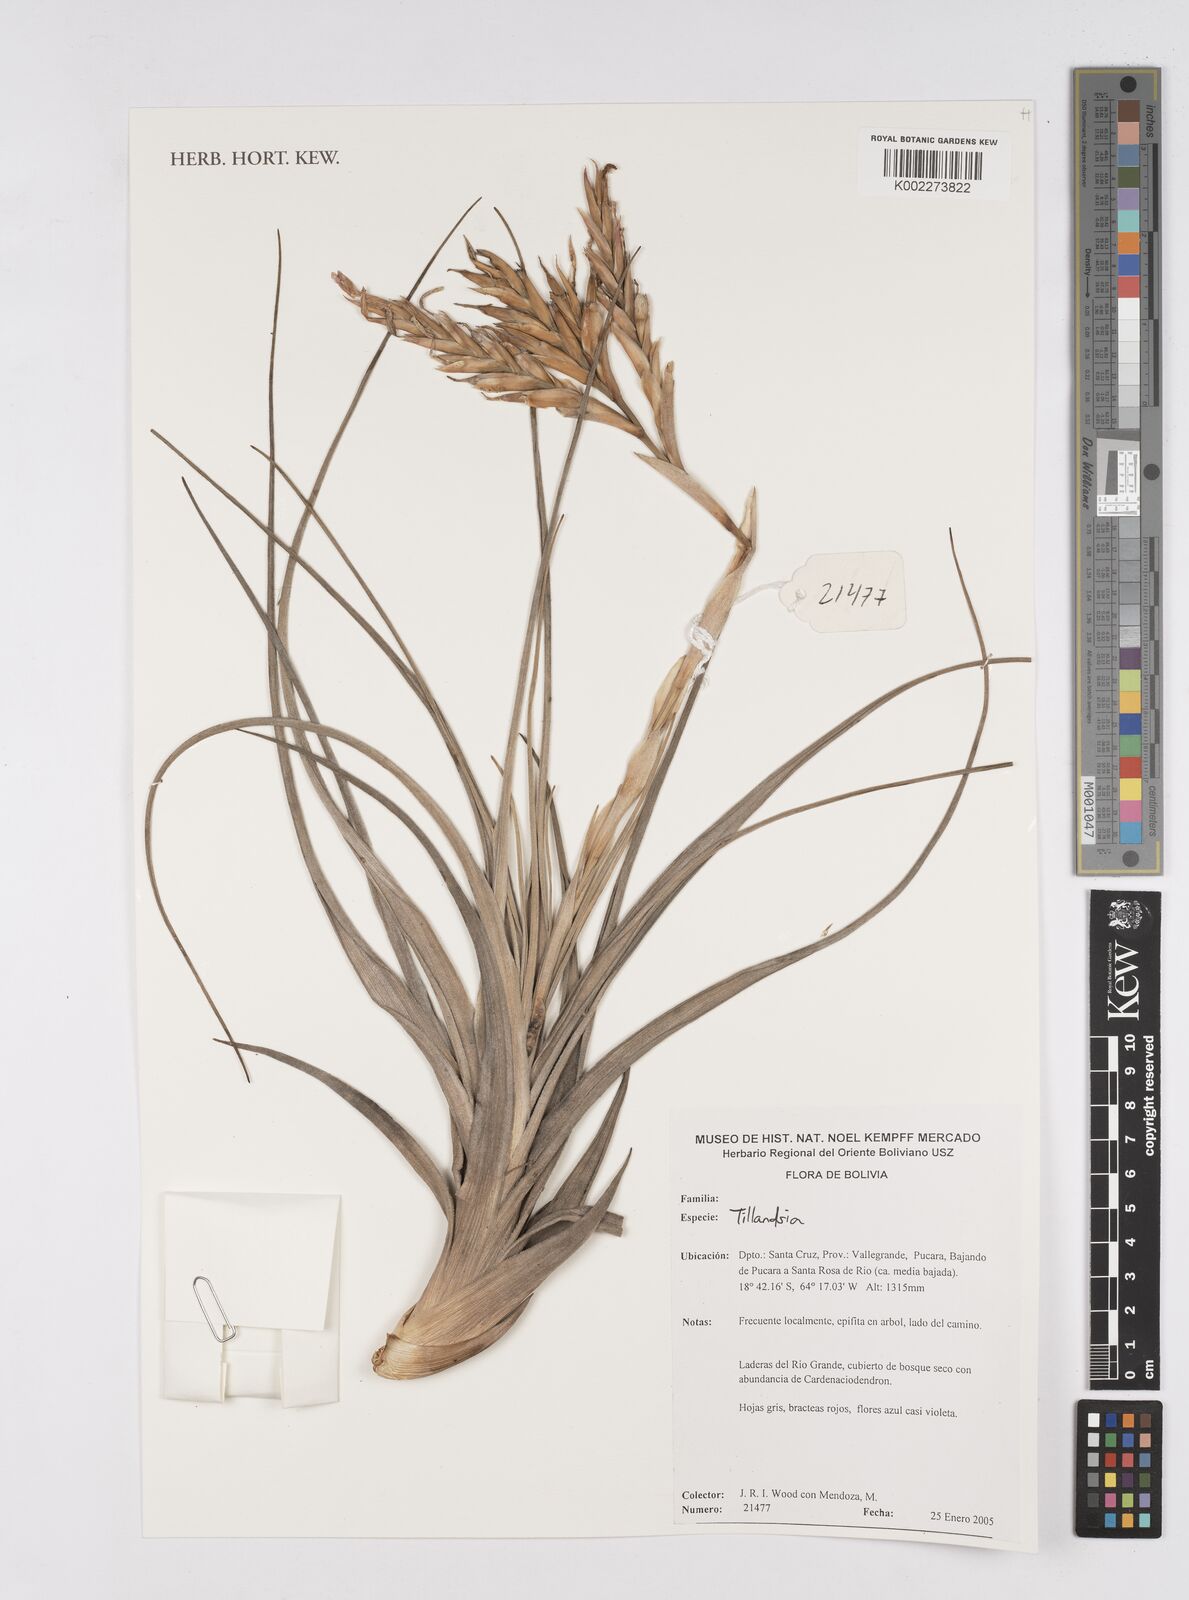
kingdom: Plantae
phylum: Tracheophyta
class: Liliopsida
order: Poales
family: Bromeliaceae
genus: Tillandsia
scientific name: Tillandsia
